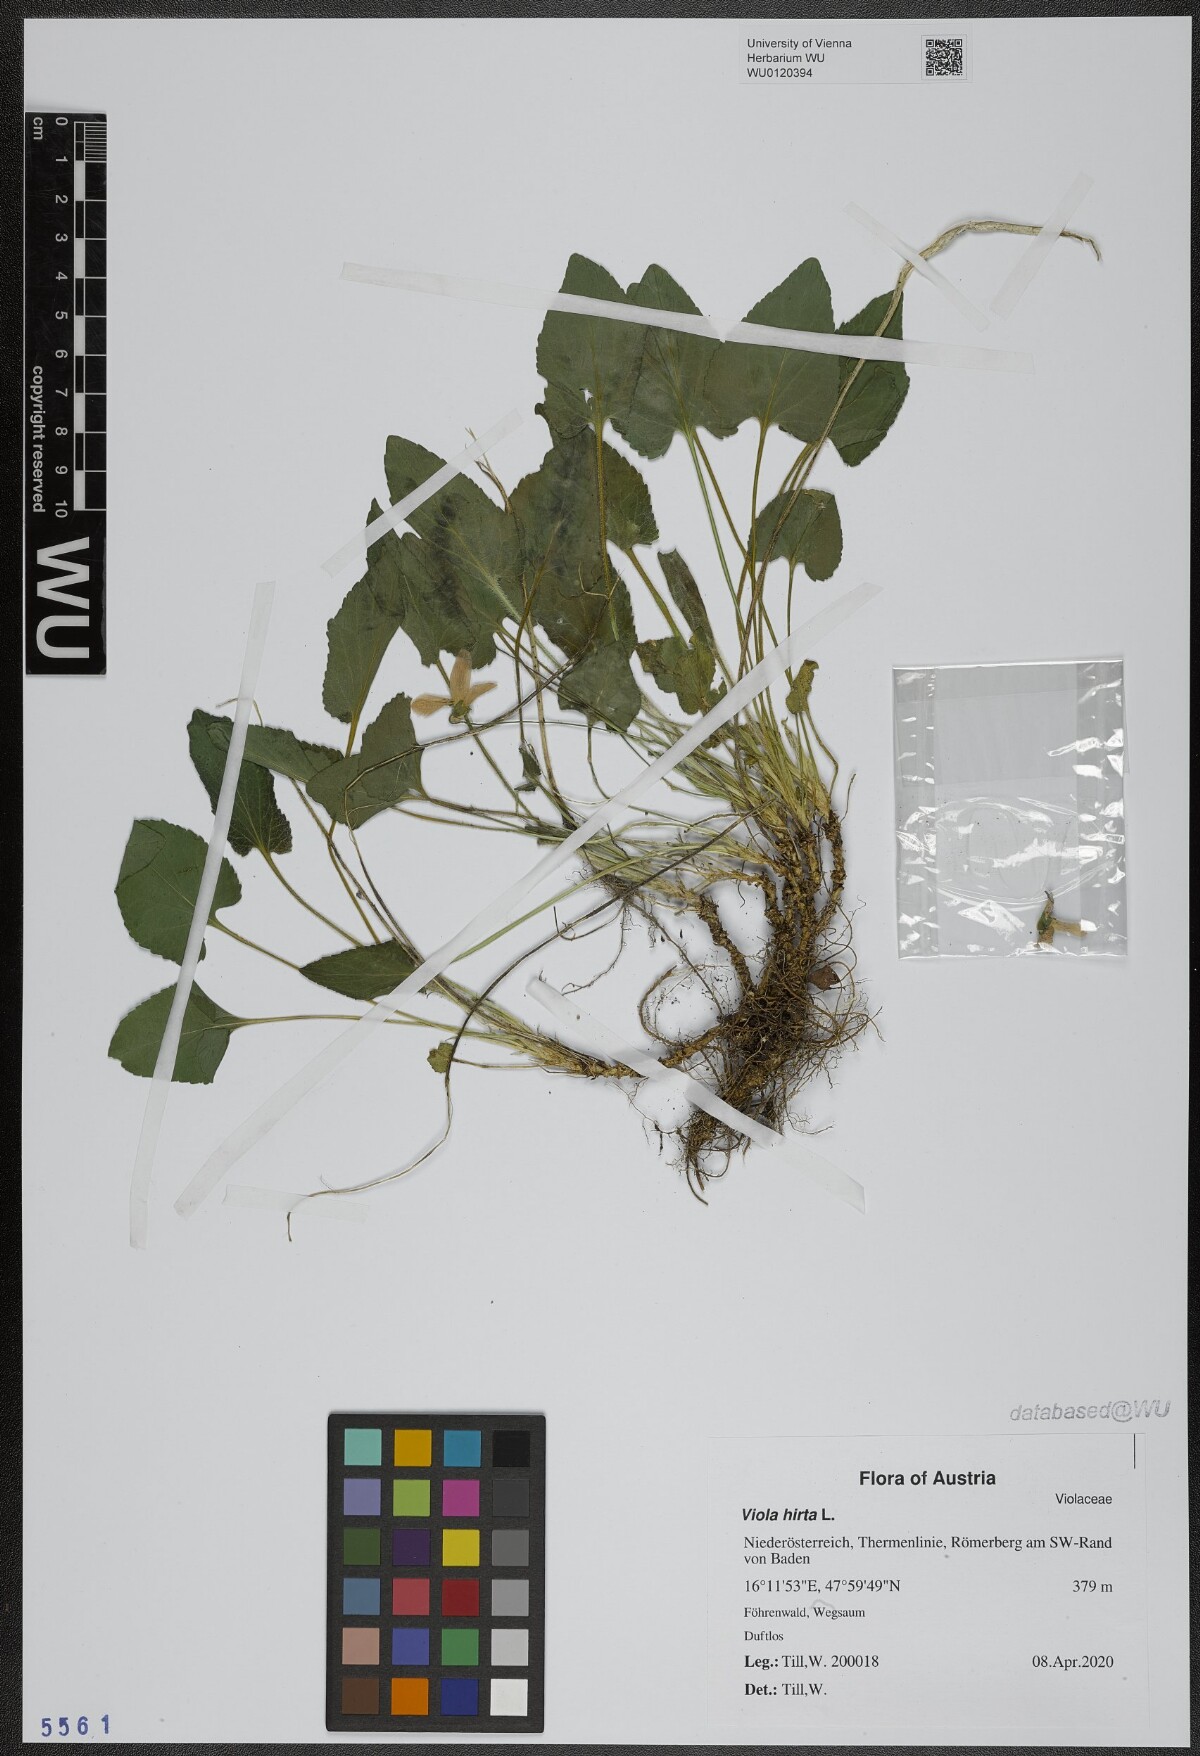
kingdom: Plantae
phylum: Tracheophyta
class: Magnoliopsida
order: Malpighiales
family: Violaceae
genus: Viola
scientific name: Viola hirta
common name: Hairy violet
